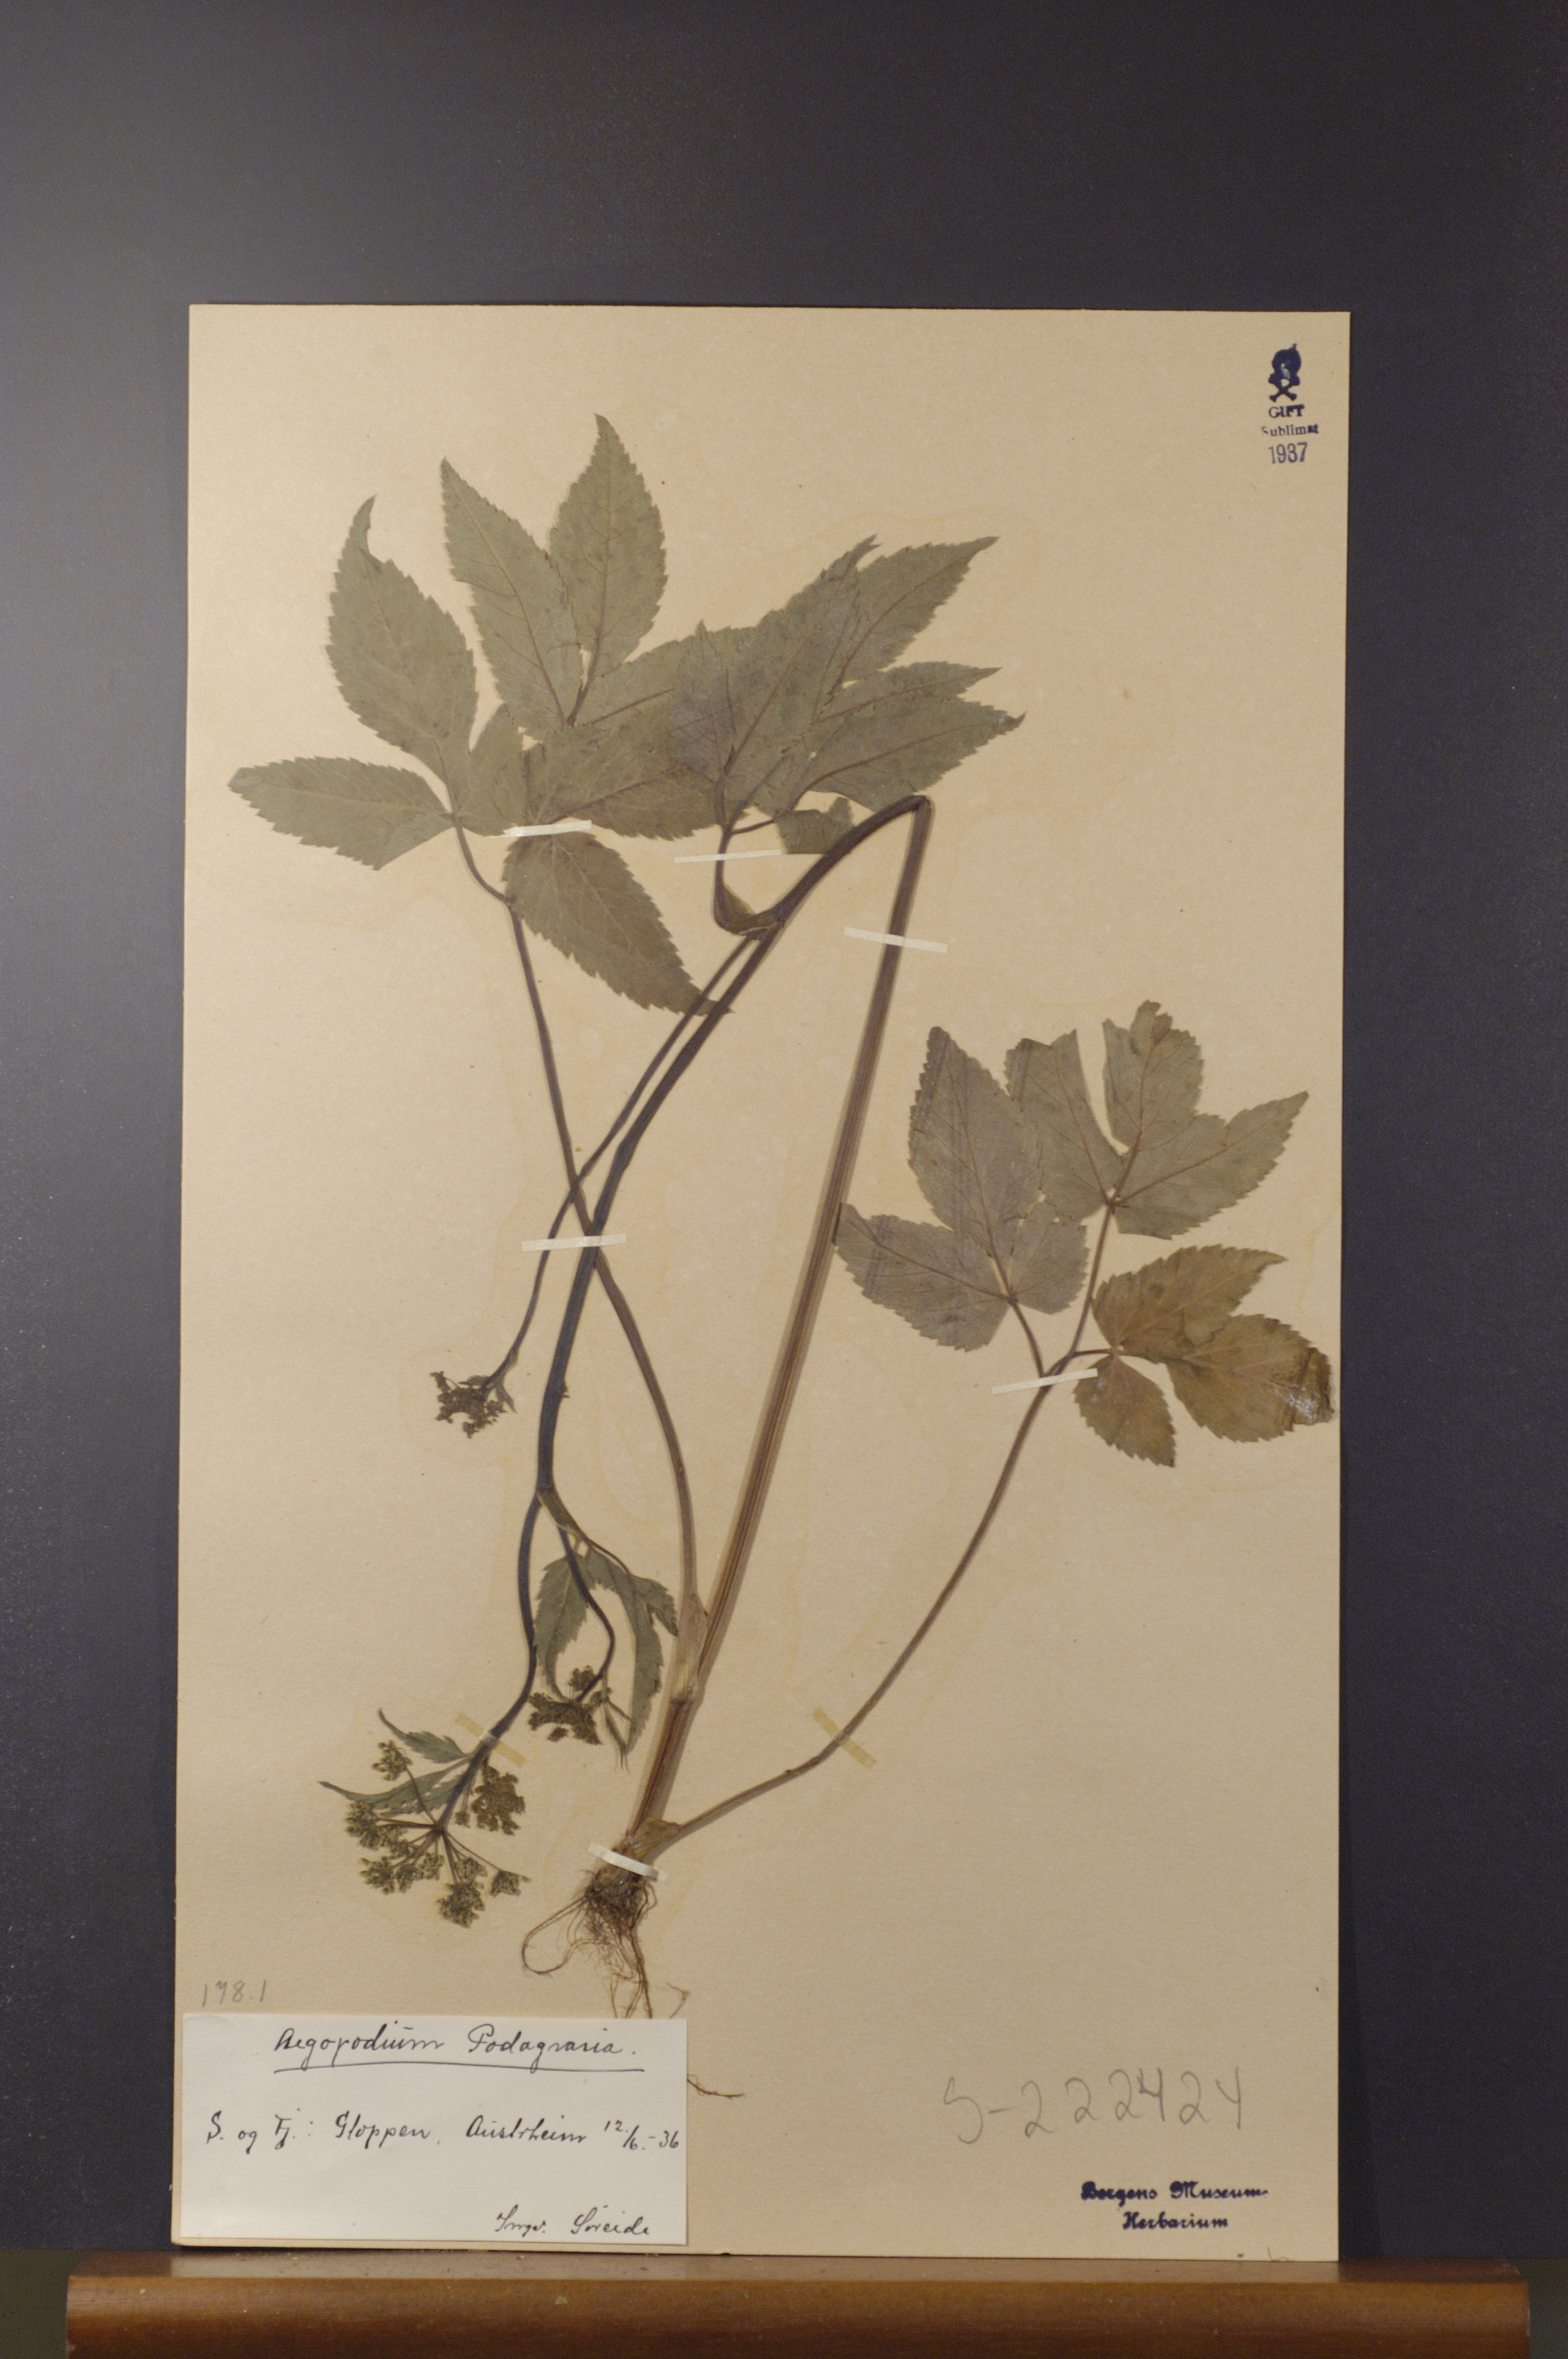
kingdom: Plantae
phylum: Tracheophyta
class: Magnoliopsida
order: Apiales
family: Apiaceae
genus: Aegopodium
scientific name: Aegopodium podagraria
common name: Ground-elder
